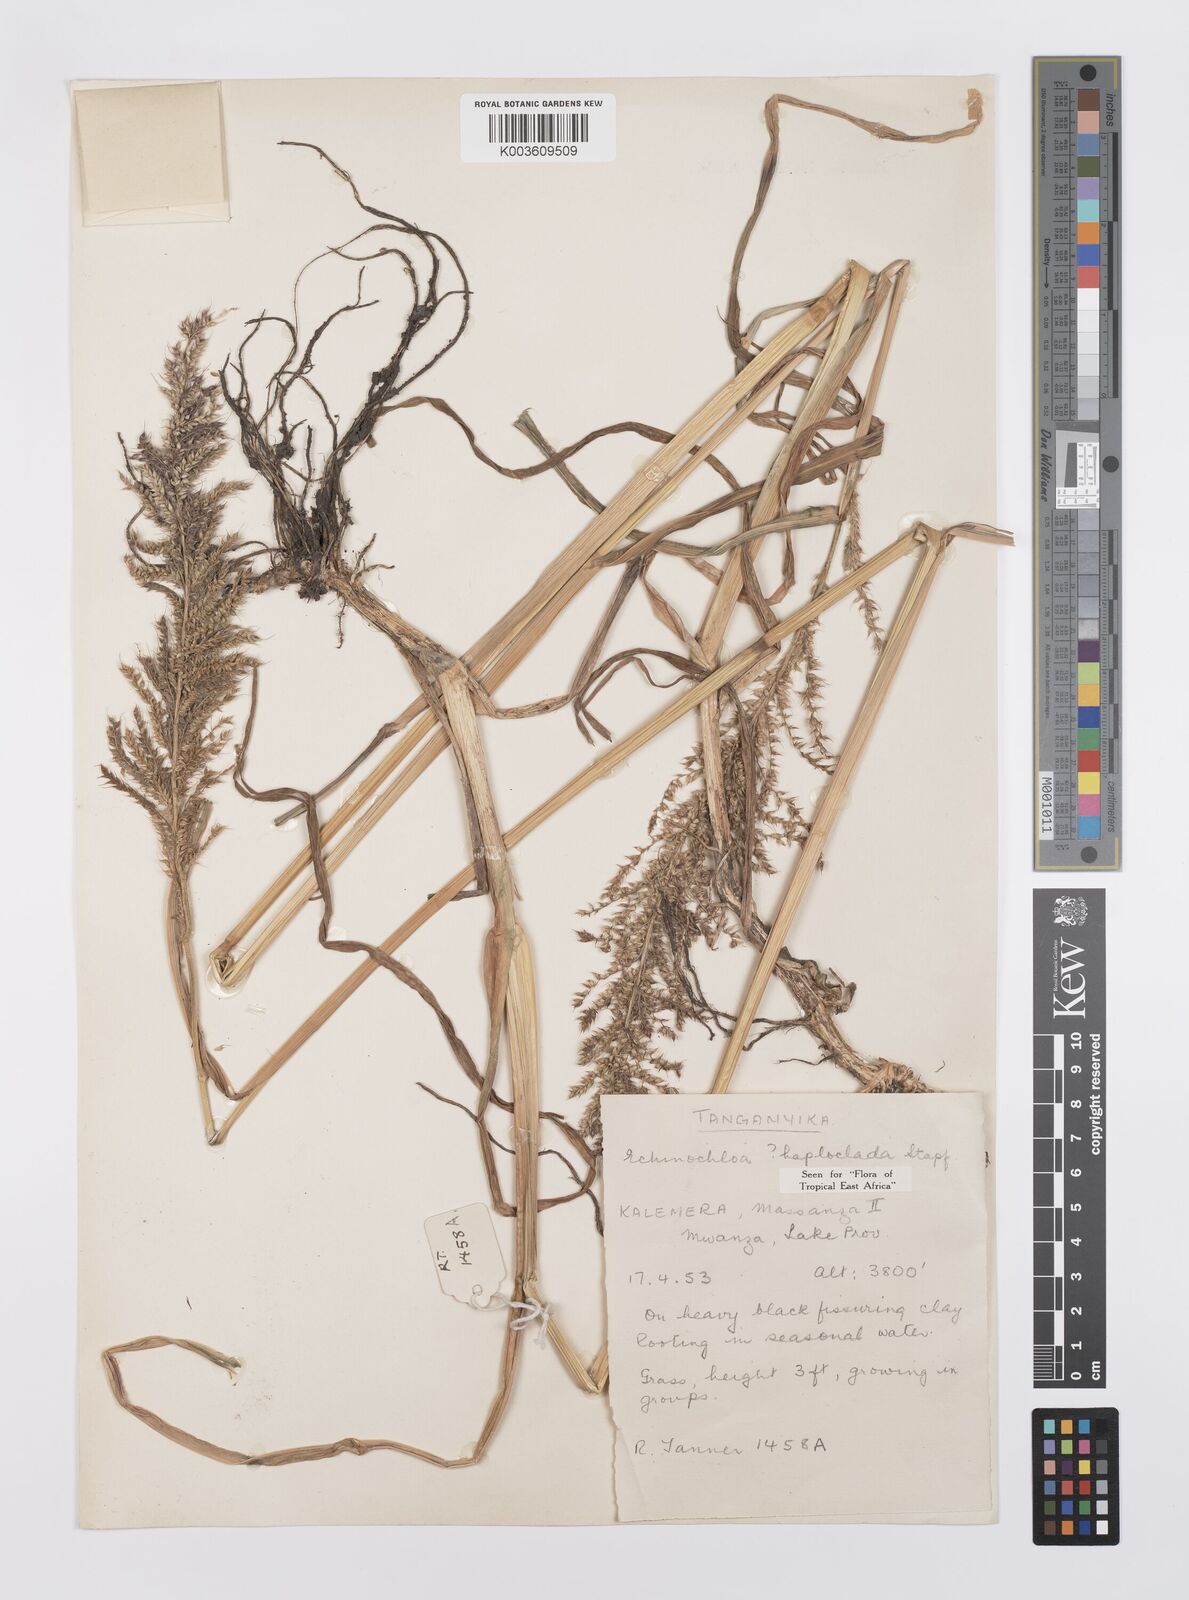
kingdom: Plantae
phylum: Tracheophyta
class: Liliopsida
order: Poales
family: Poaceae
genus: Echinochloa
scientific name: Echinochloa haploclada
